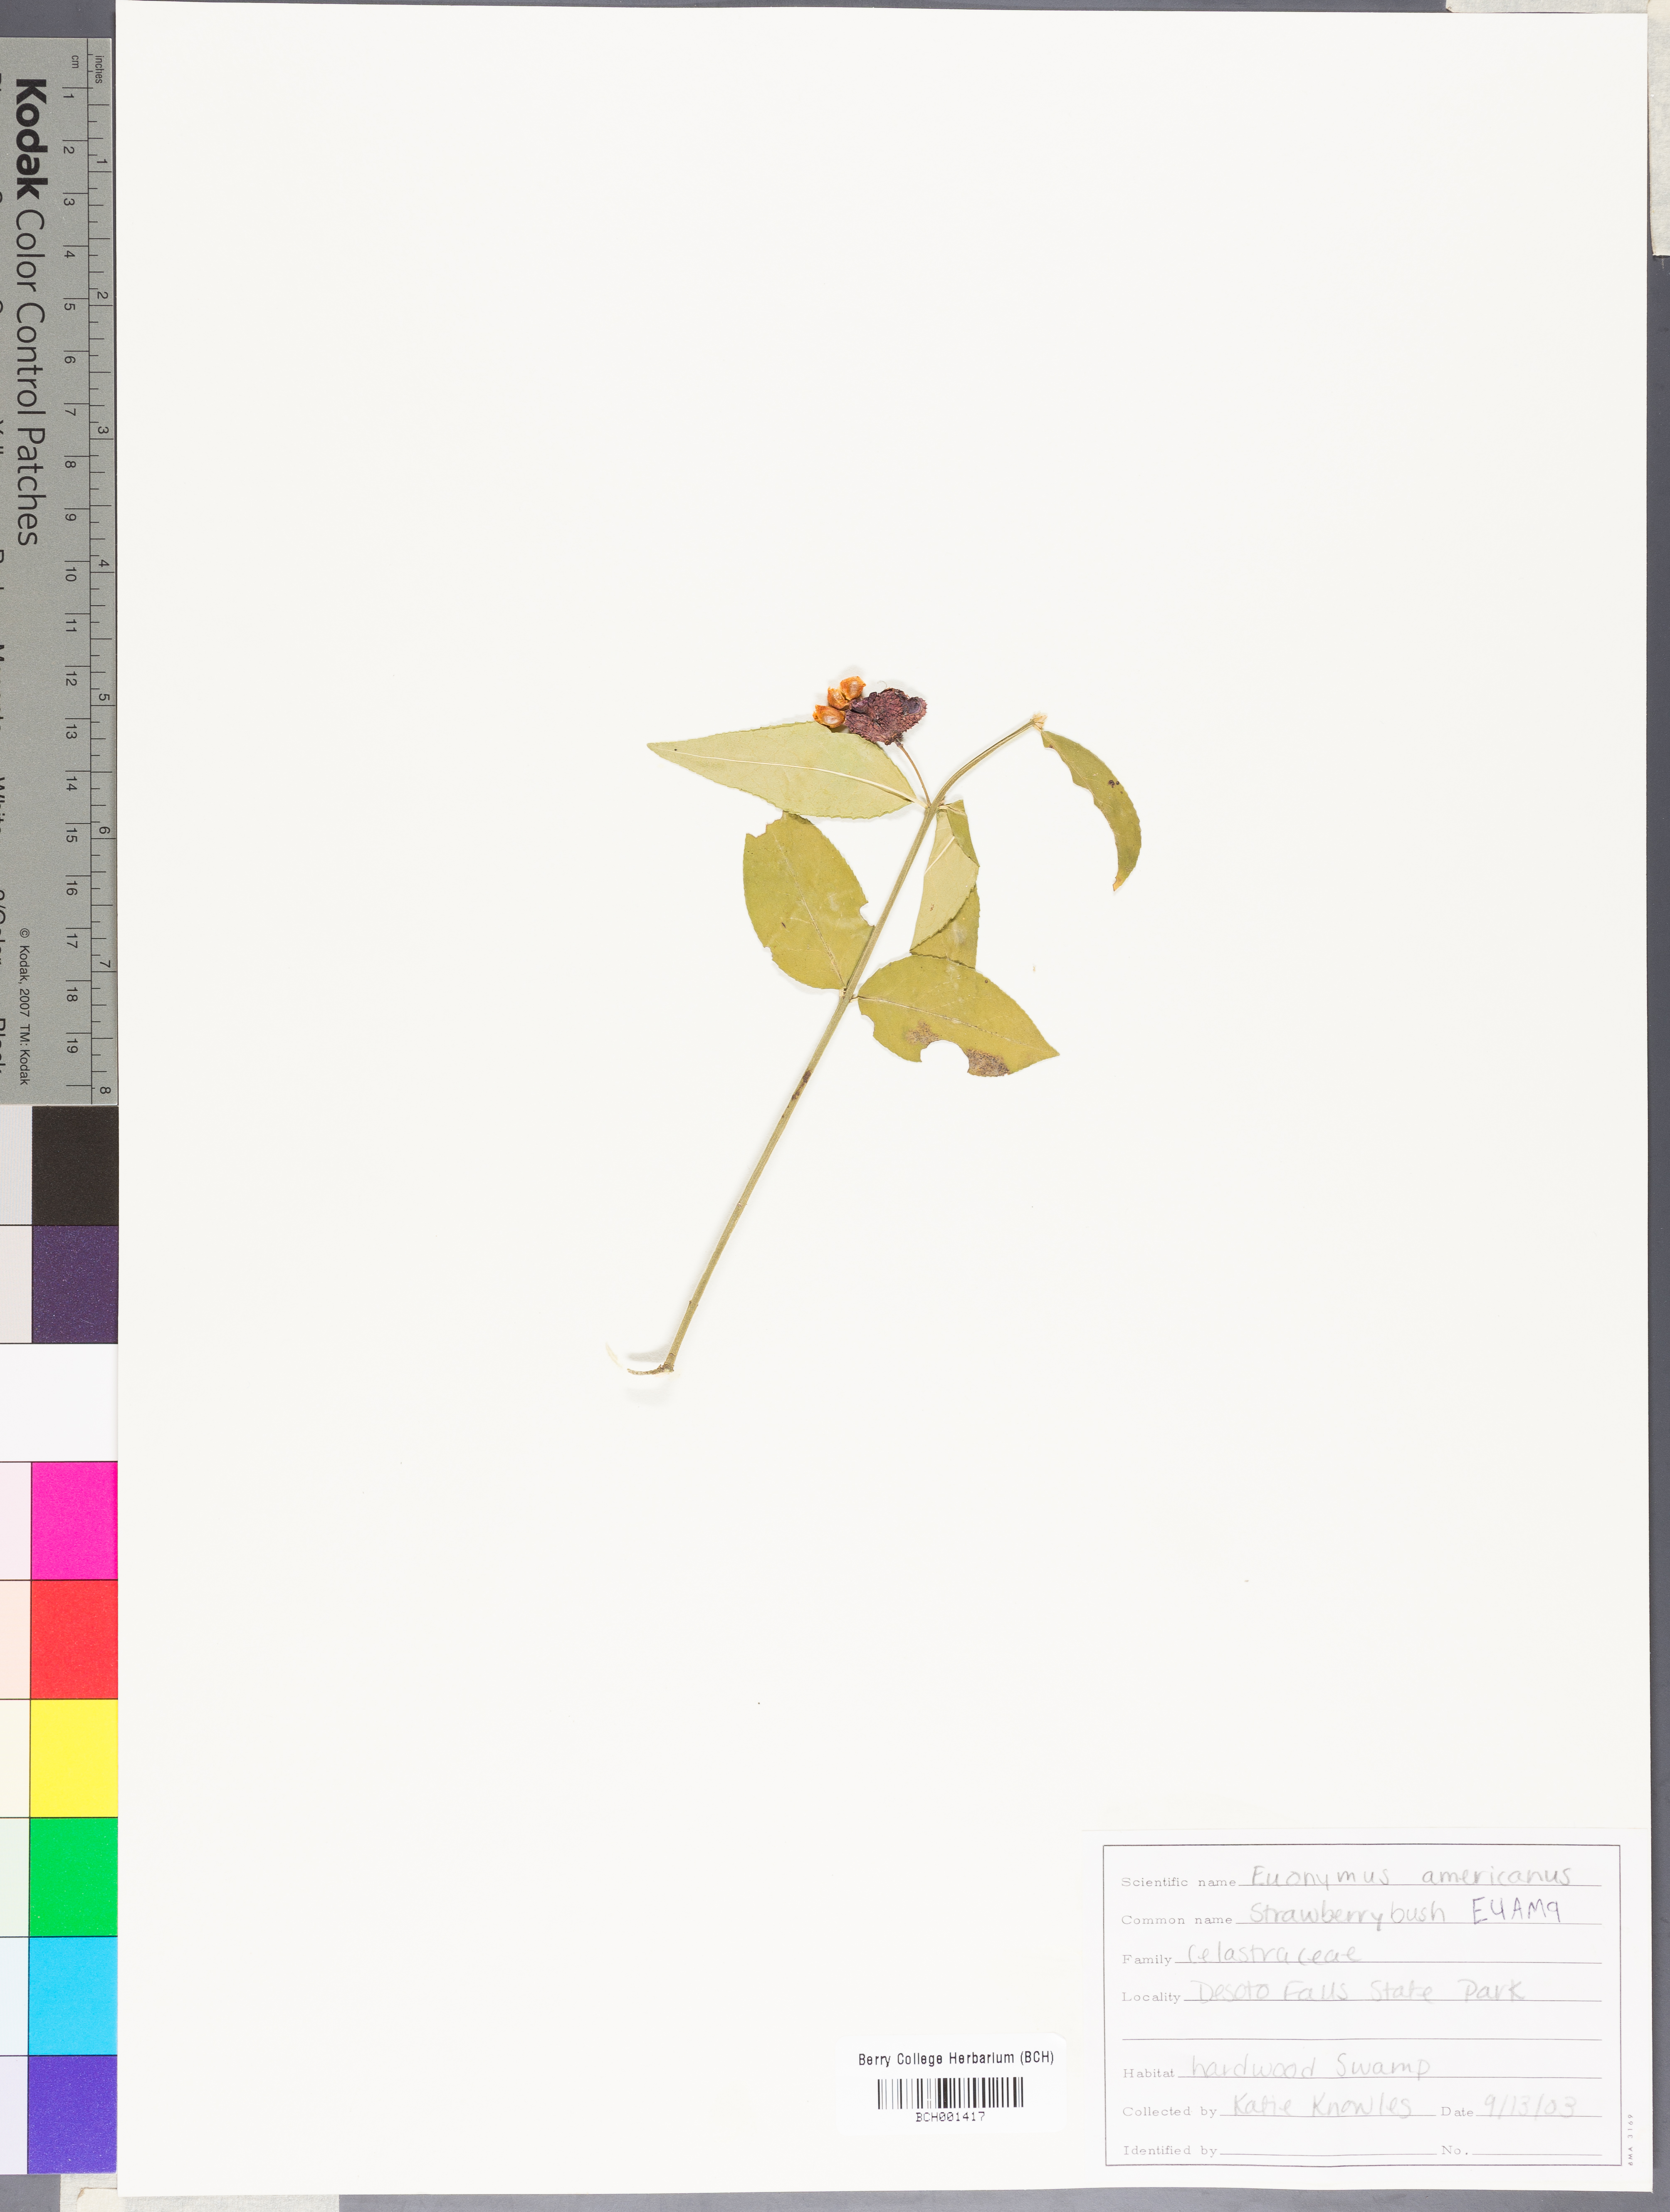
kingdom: Plantae
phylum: Tracheophyta
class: Magnoliopsida
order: Celastrales
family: Celastraceae
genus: Euonymus
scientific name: Euonymus americanus
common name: Bursting-heart
